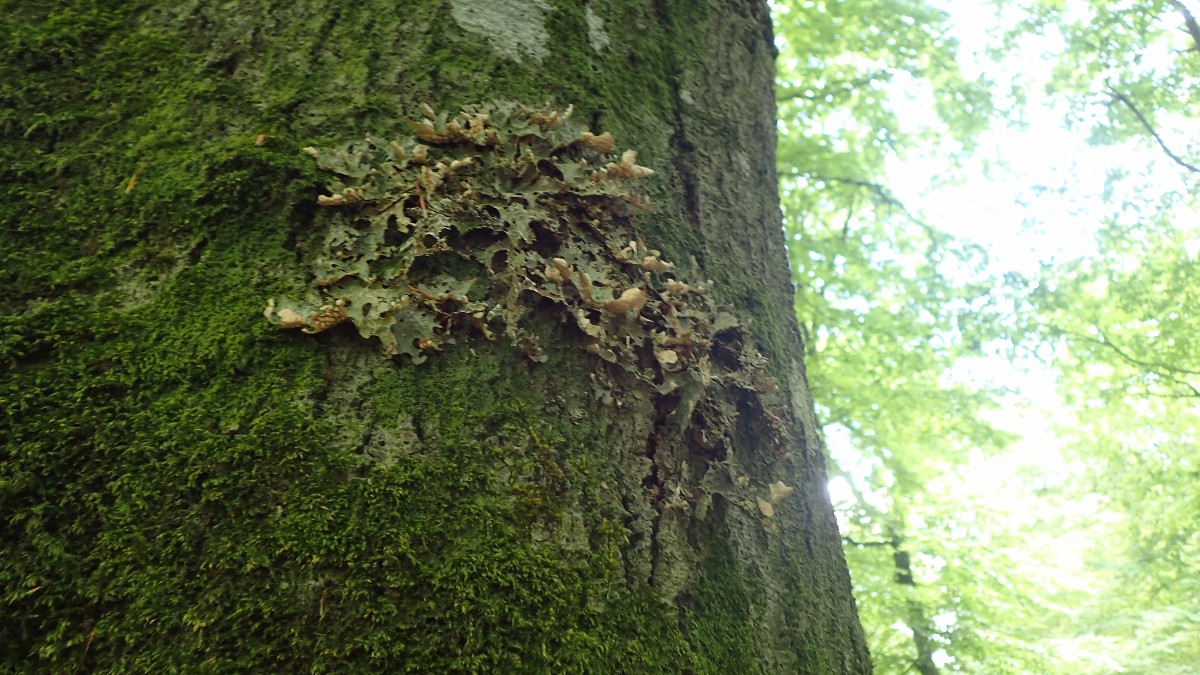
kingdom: Fungi
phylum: Ascomycota
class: Lecanoromycetes
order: Peltigerales
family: Lobariaceae
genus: Lobaria
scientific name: Lobaria pulmonaria
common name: almindelig lungelav
